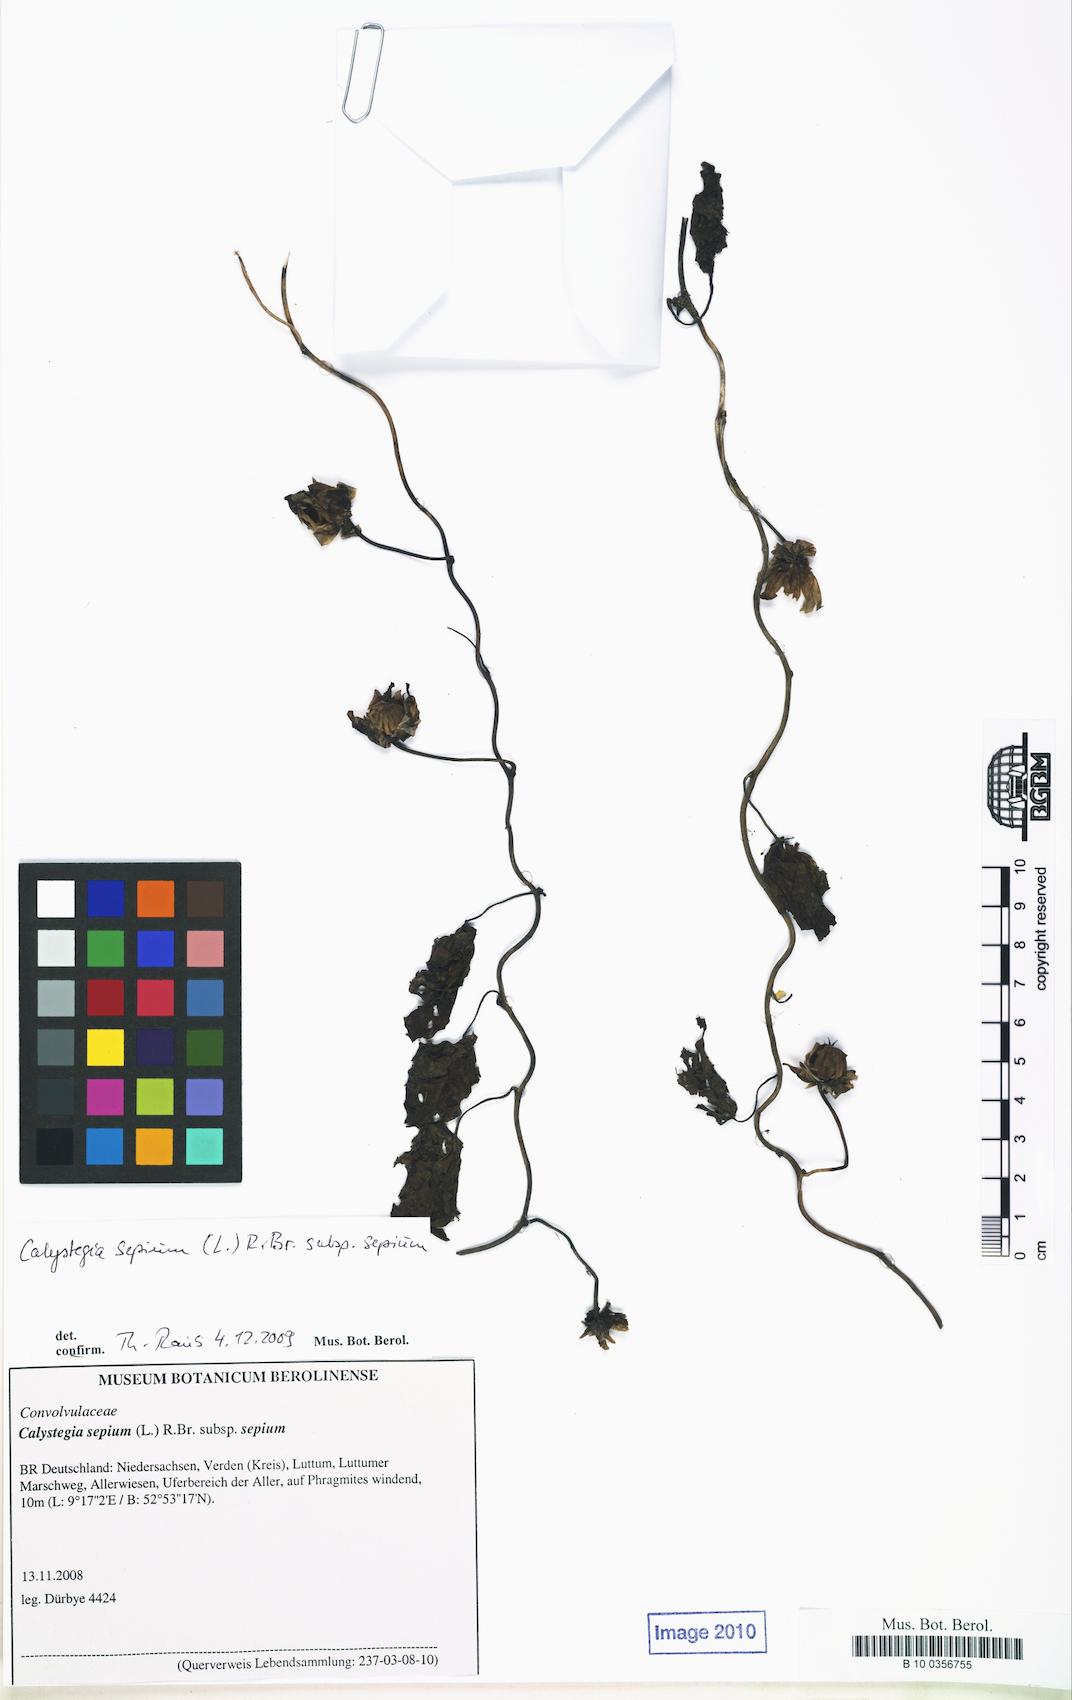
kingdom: Plantae
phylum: Tracheophyta
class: Magnoliopsida
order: Solanales
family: Convolvulaceae
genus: Calystegia
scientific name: Calystegia sepium
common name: Hedge bindweed
